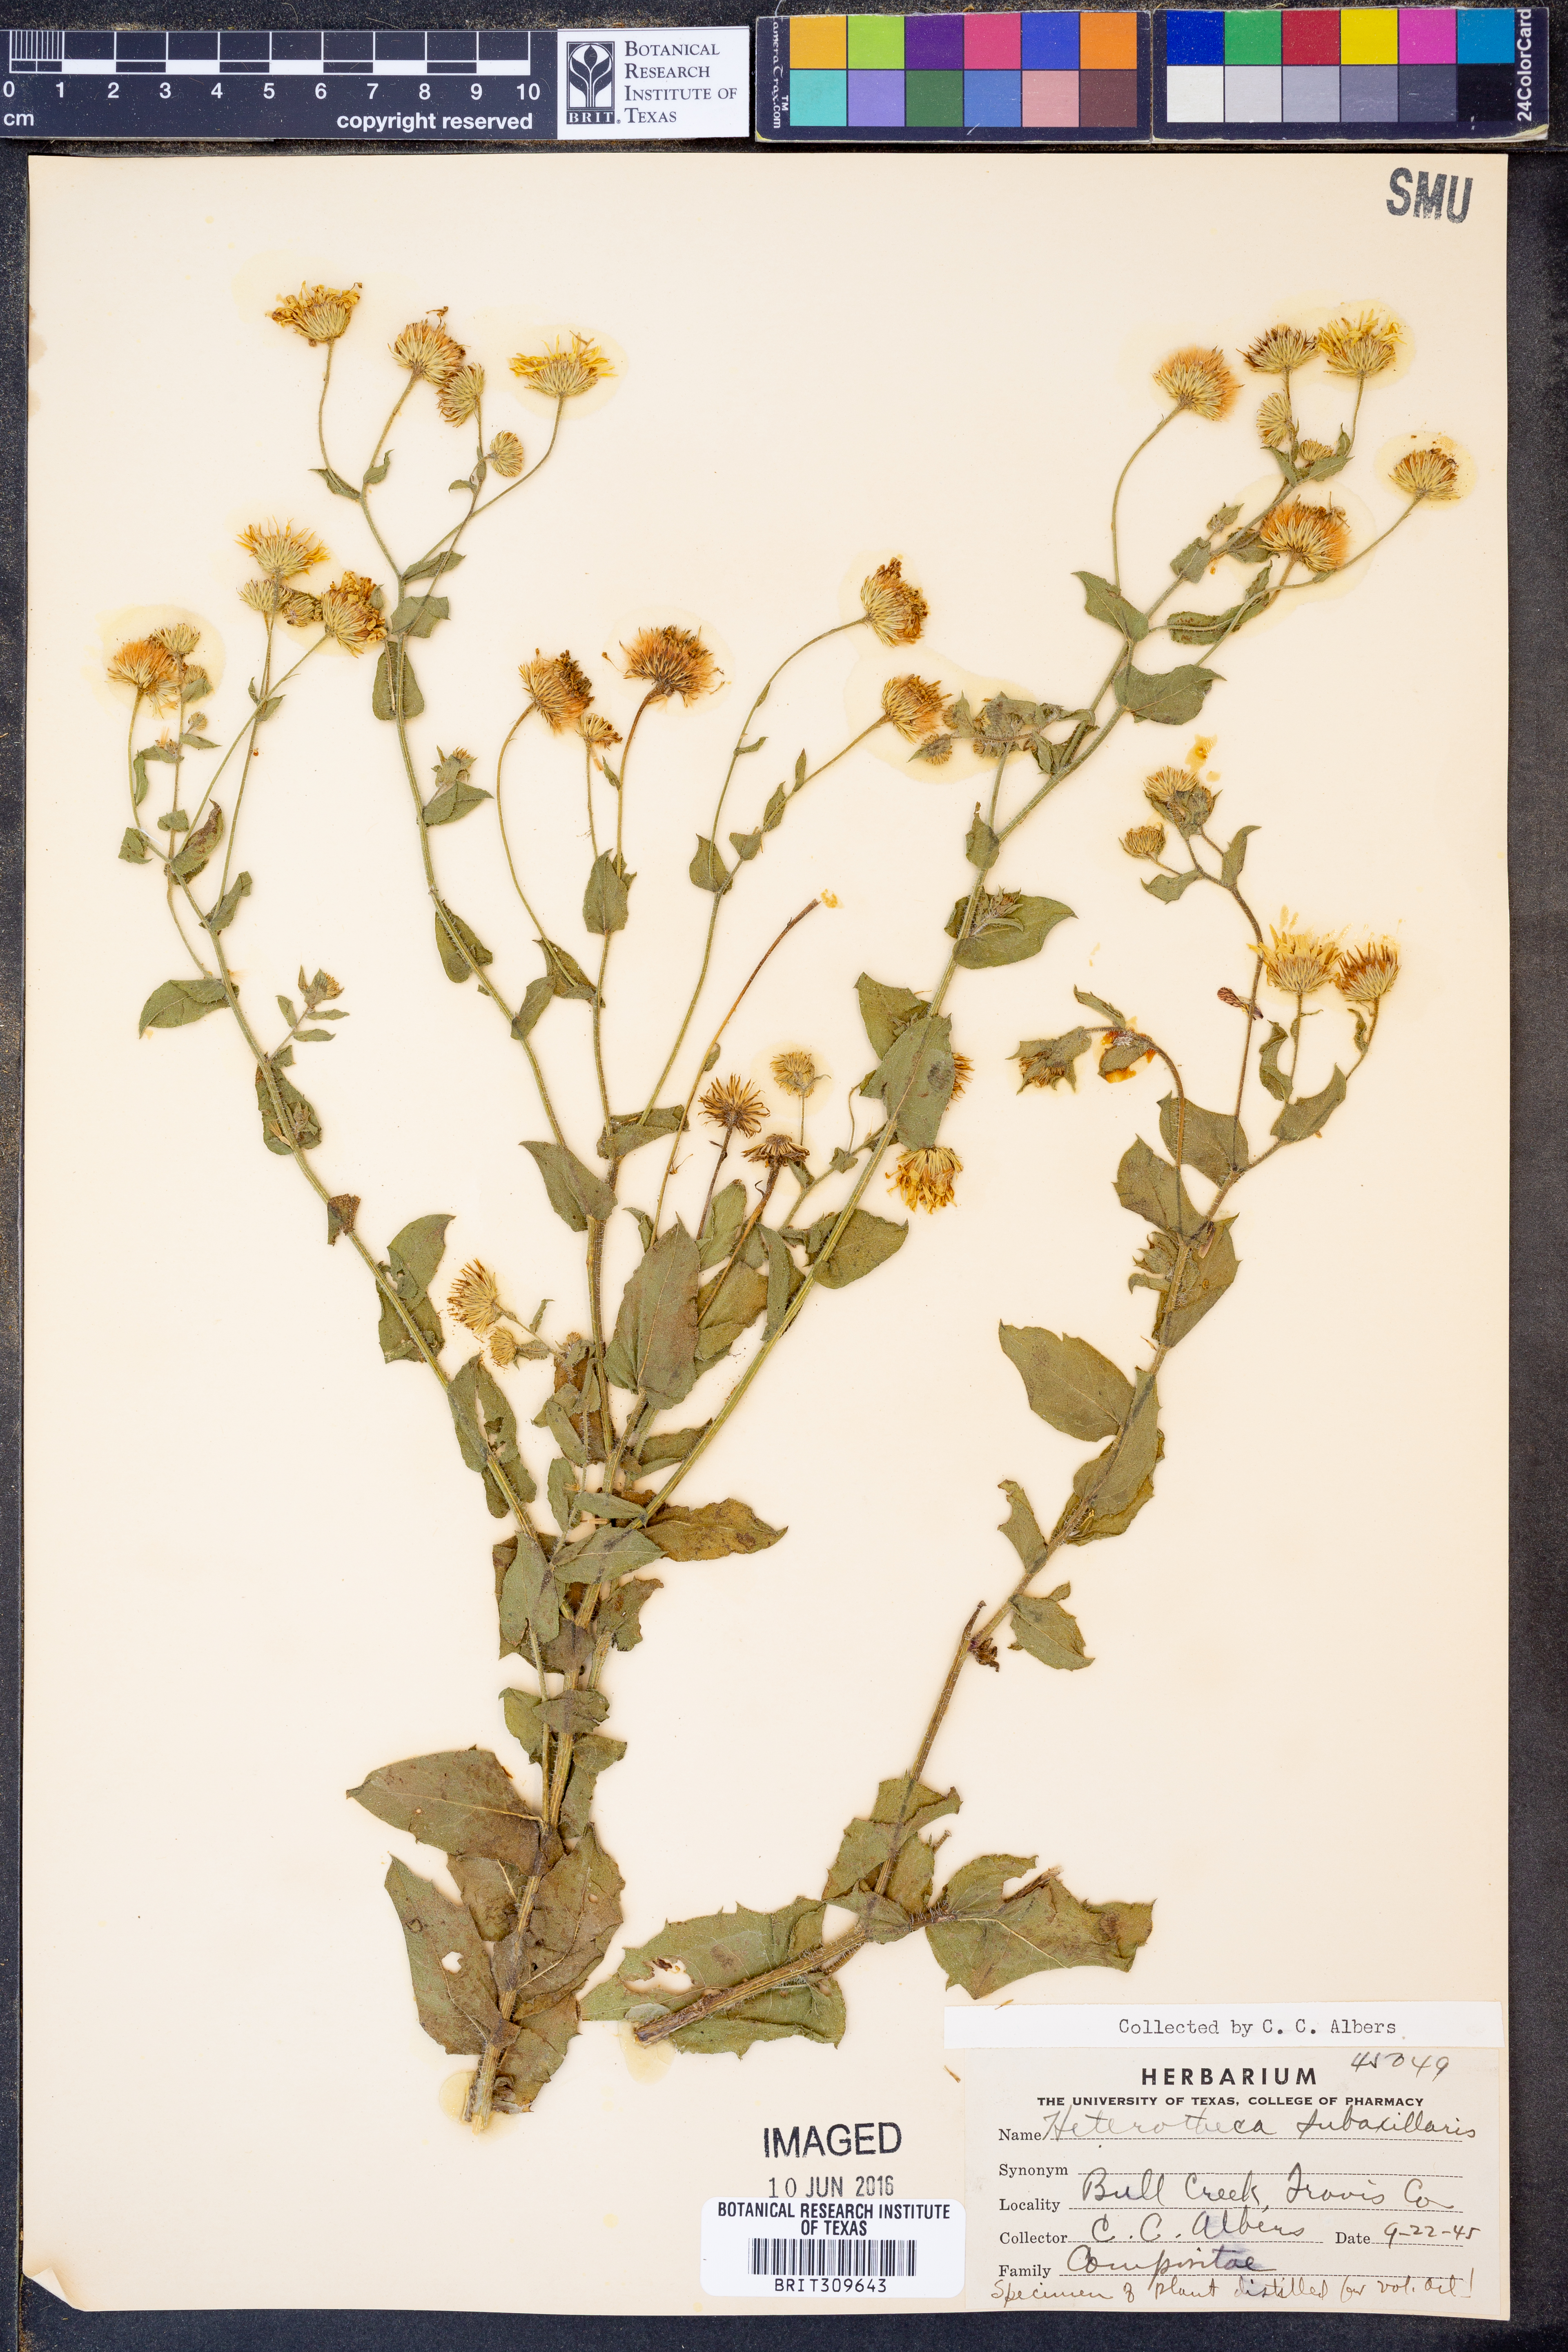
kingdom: Plantae
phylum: Tracheophyta
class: Magnoliopsida
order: Asterales
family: Asteraceae
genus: Heterotheca
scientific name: Heterotheca subaxillaris
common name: Camphorweed
